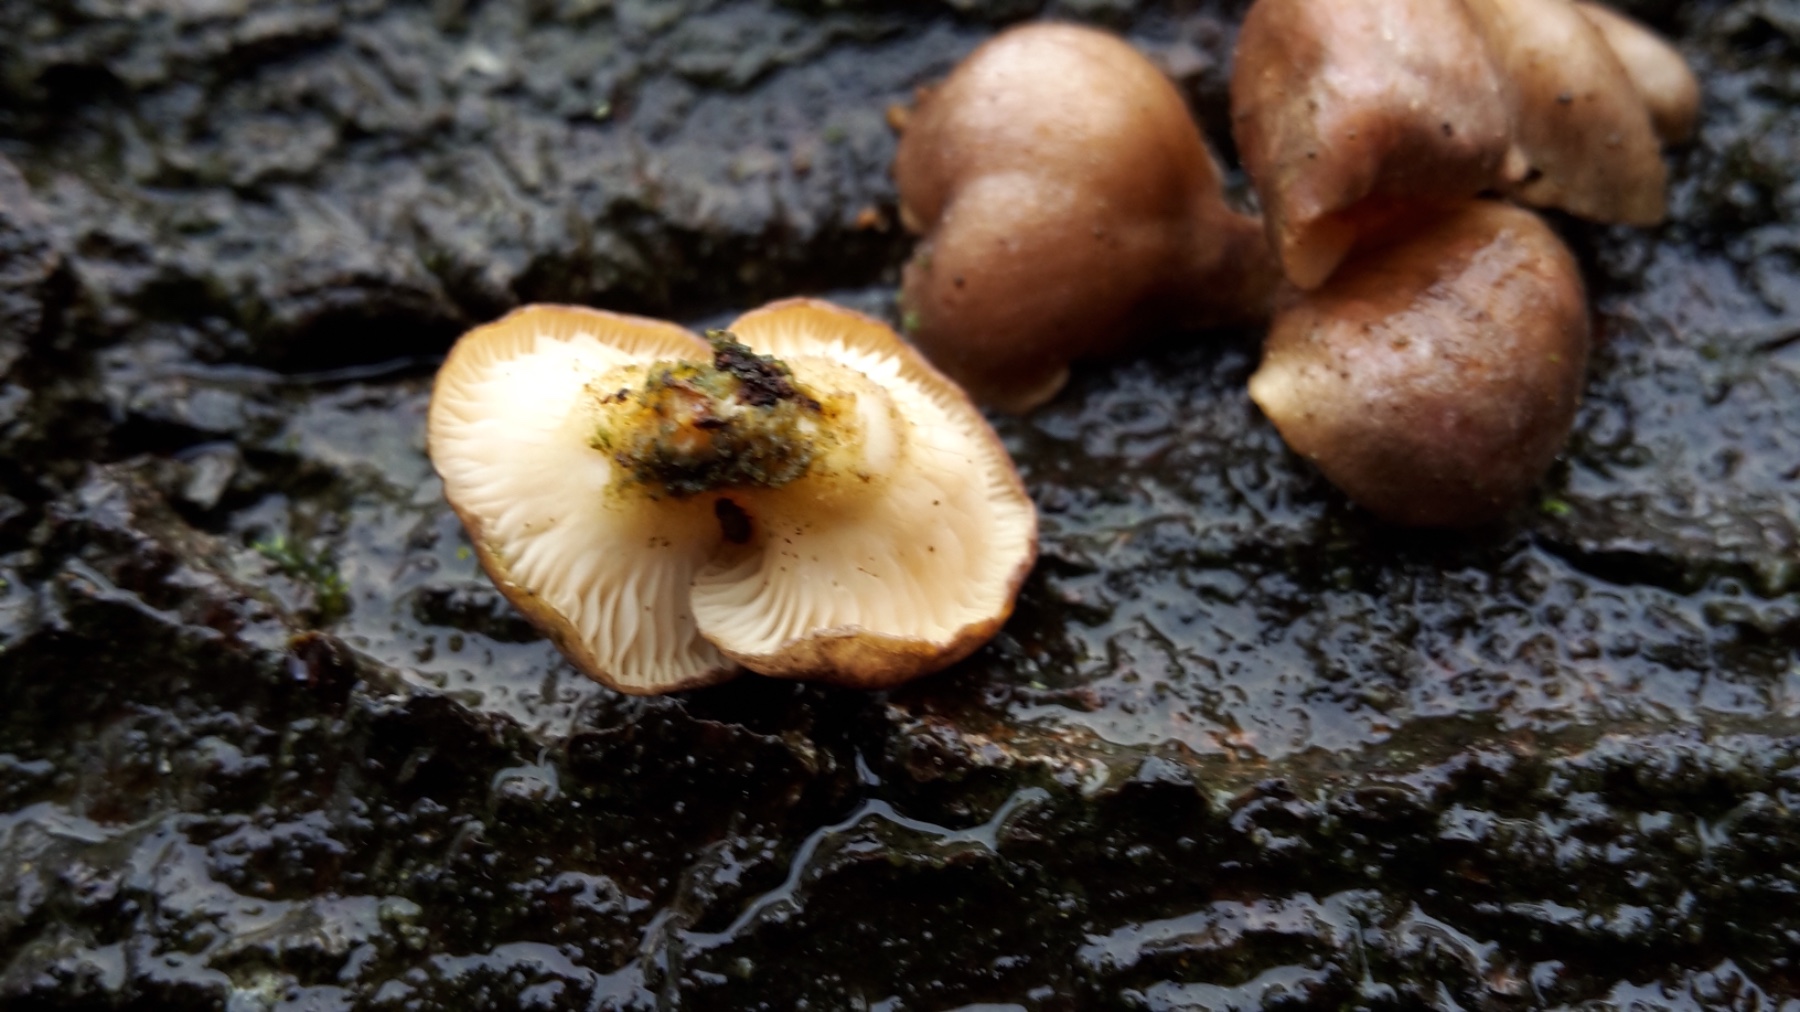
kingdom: Fungi
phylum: Basidiomycota
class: Agaricomycetes
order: Agaricales
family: Sarcomyxaceae
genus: Sarcomyxa
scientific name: Sarcomyxa serotina
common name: gummihat
